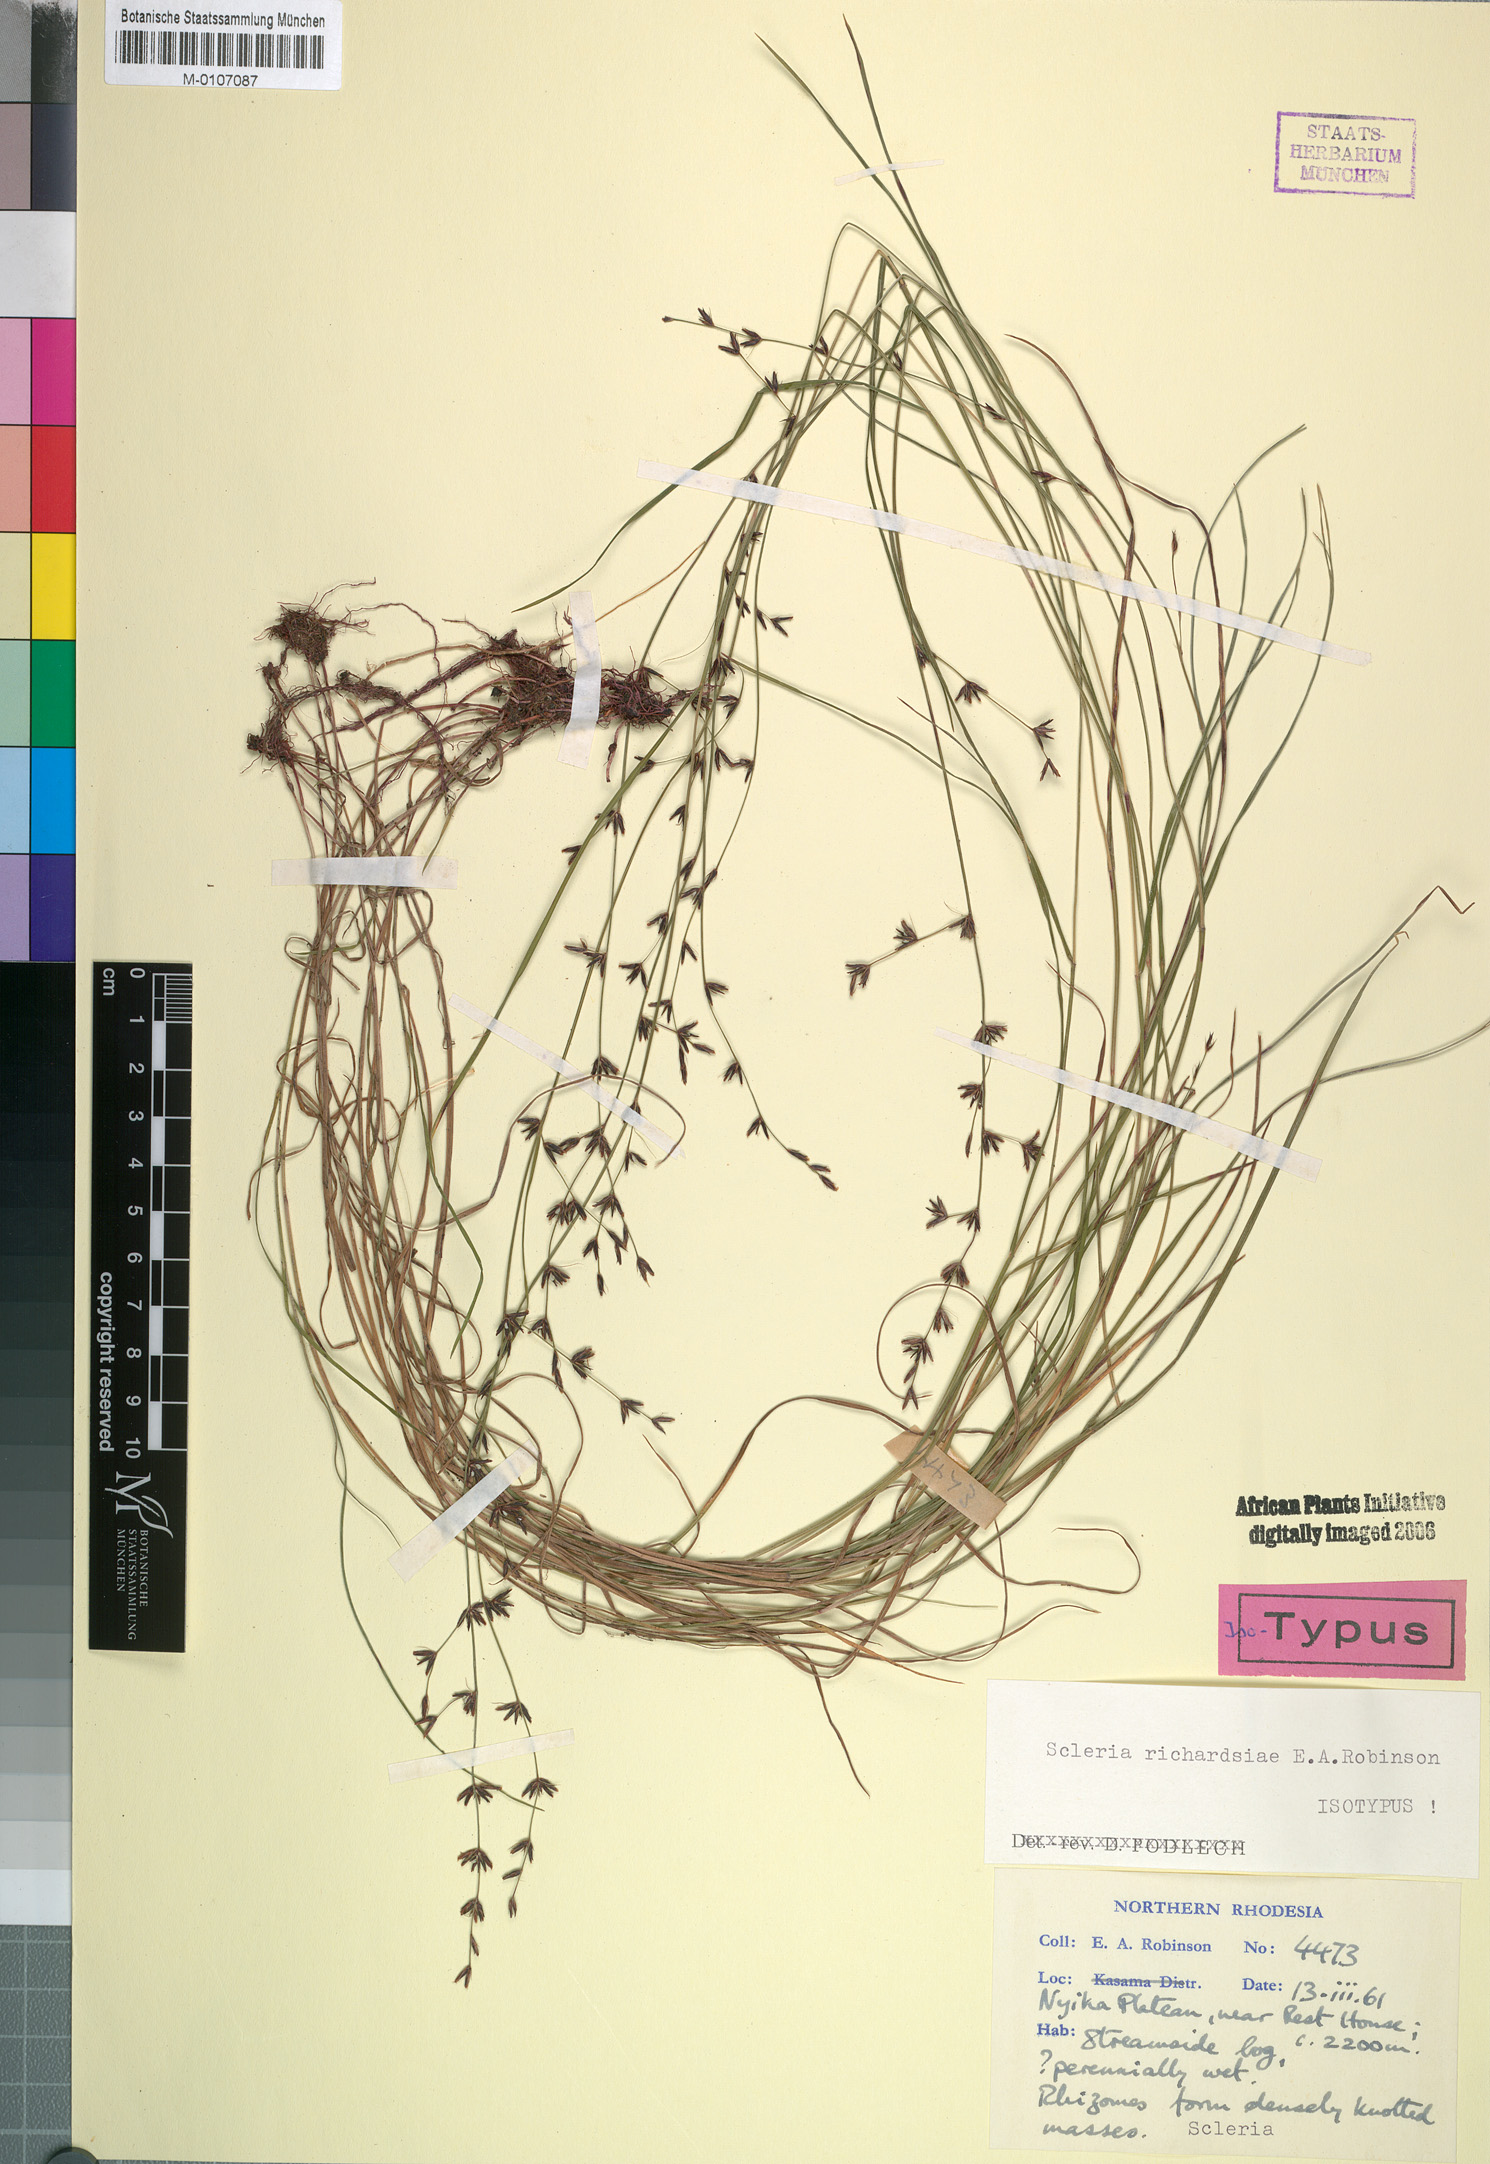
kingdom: Plantae
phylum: Tracheophyta
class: Liliopsida
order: Poales
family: Cyperaceae
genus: Scleria
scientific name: Scleria richardsiae
